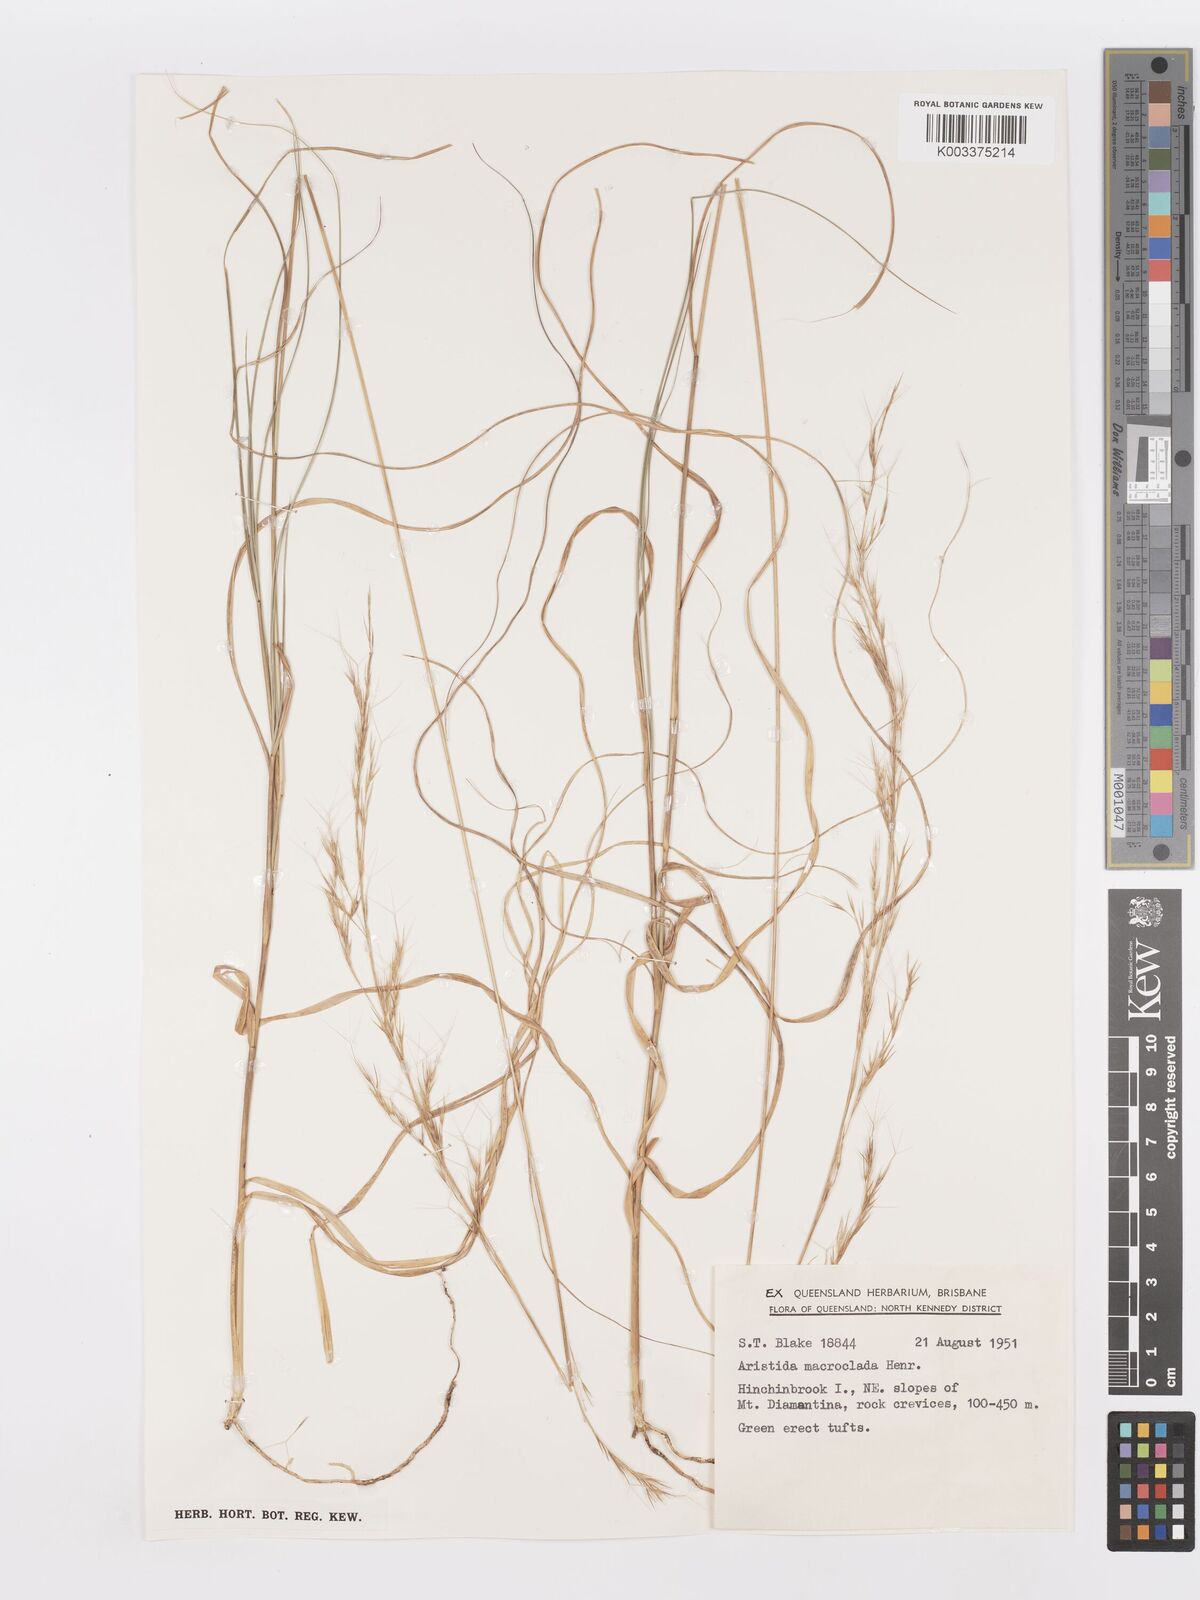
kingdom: Plantae
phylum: Tracheophyta
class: Liliopsida
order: Poales
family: Poaceae
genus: Aristida
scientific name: Aristida macroclada
